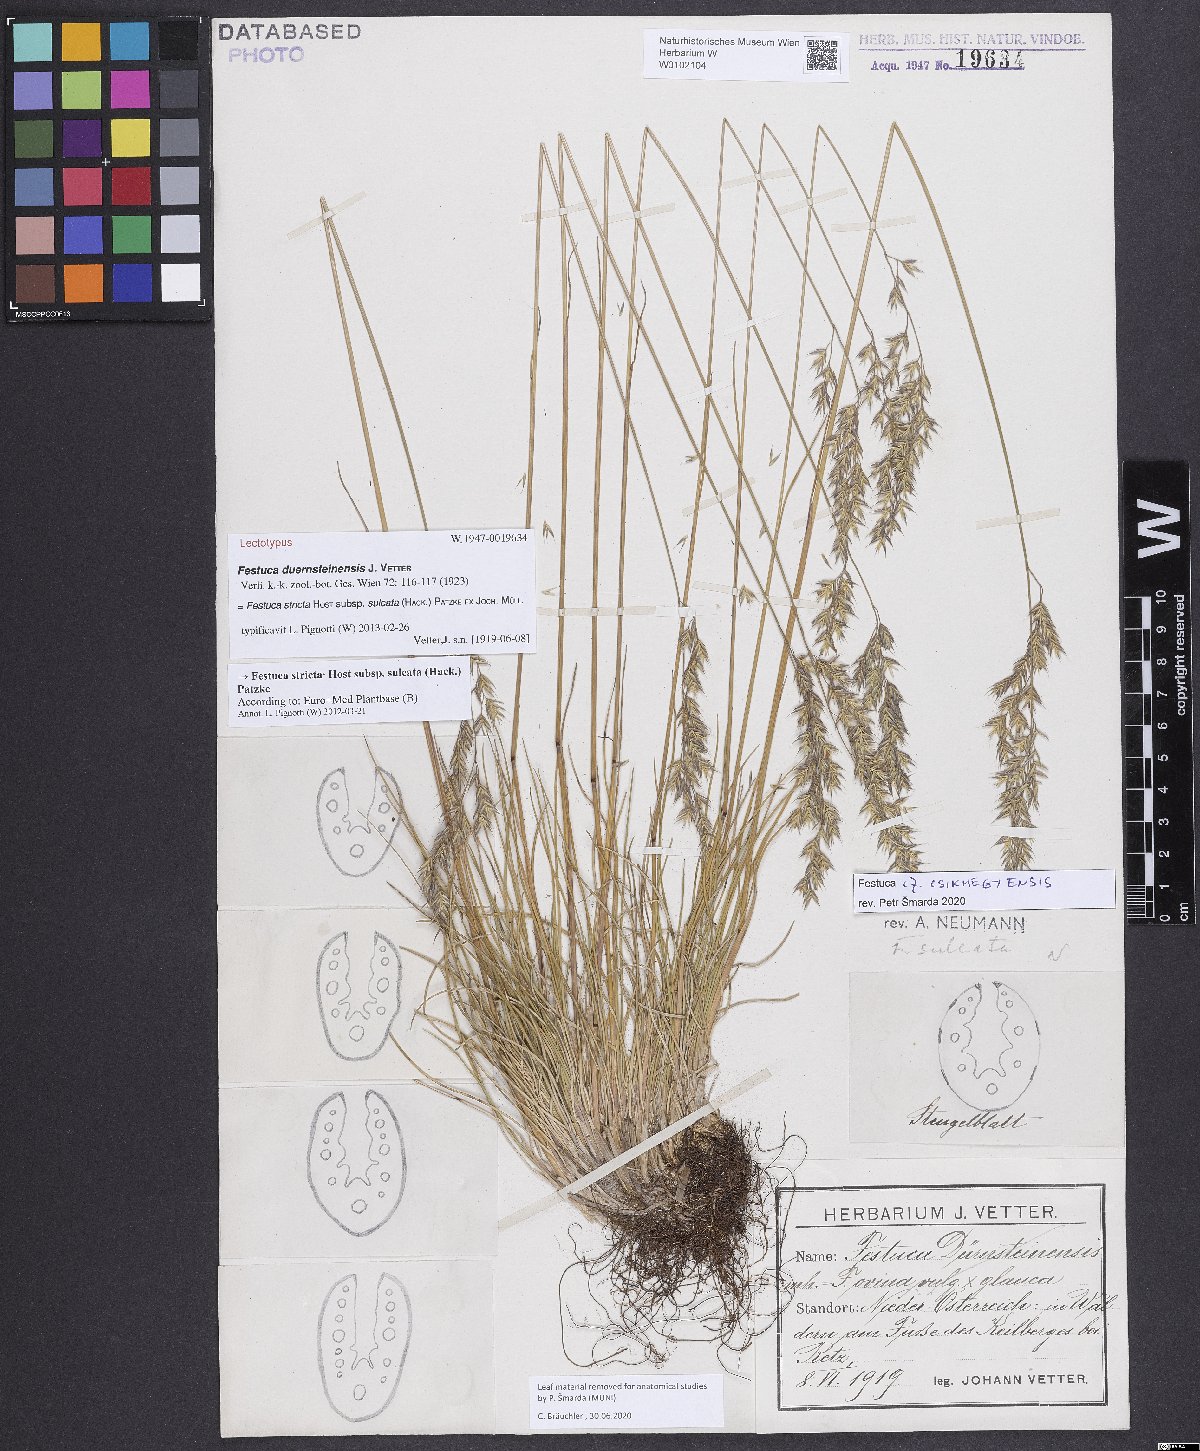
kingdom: Plantae
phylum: Tracheophyta
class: Liliopsida
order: Poales
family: Poaceae
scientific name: Poaceae
